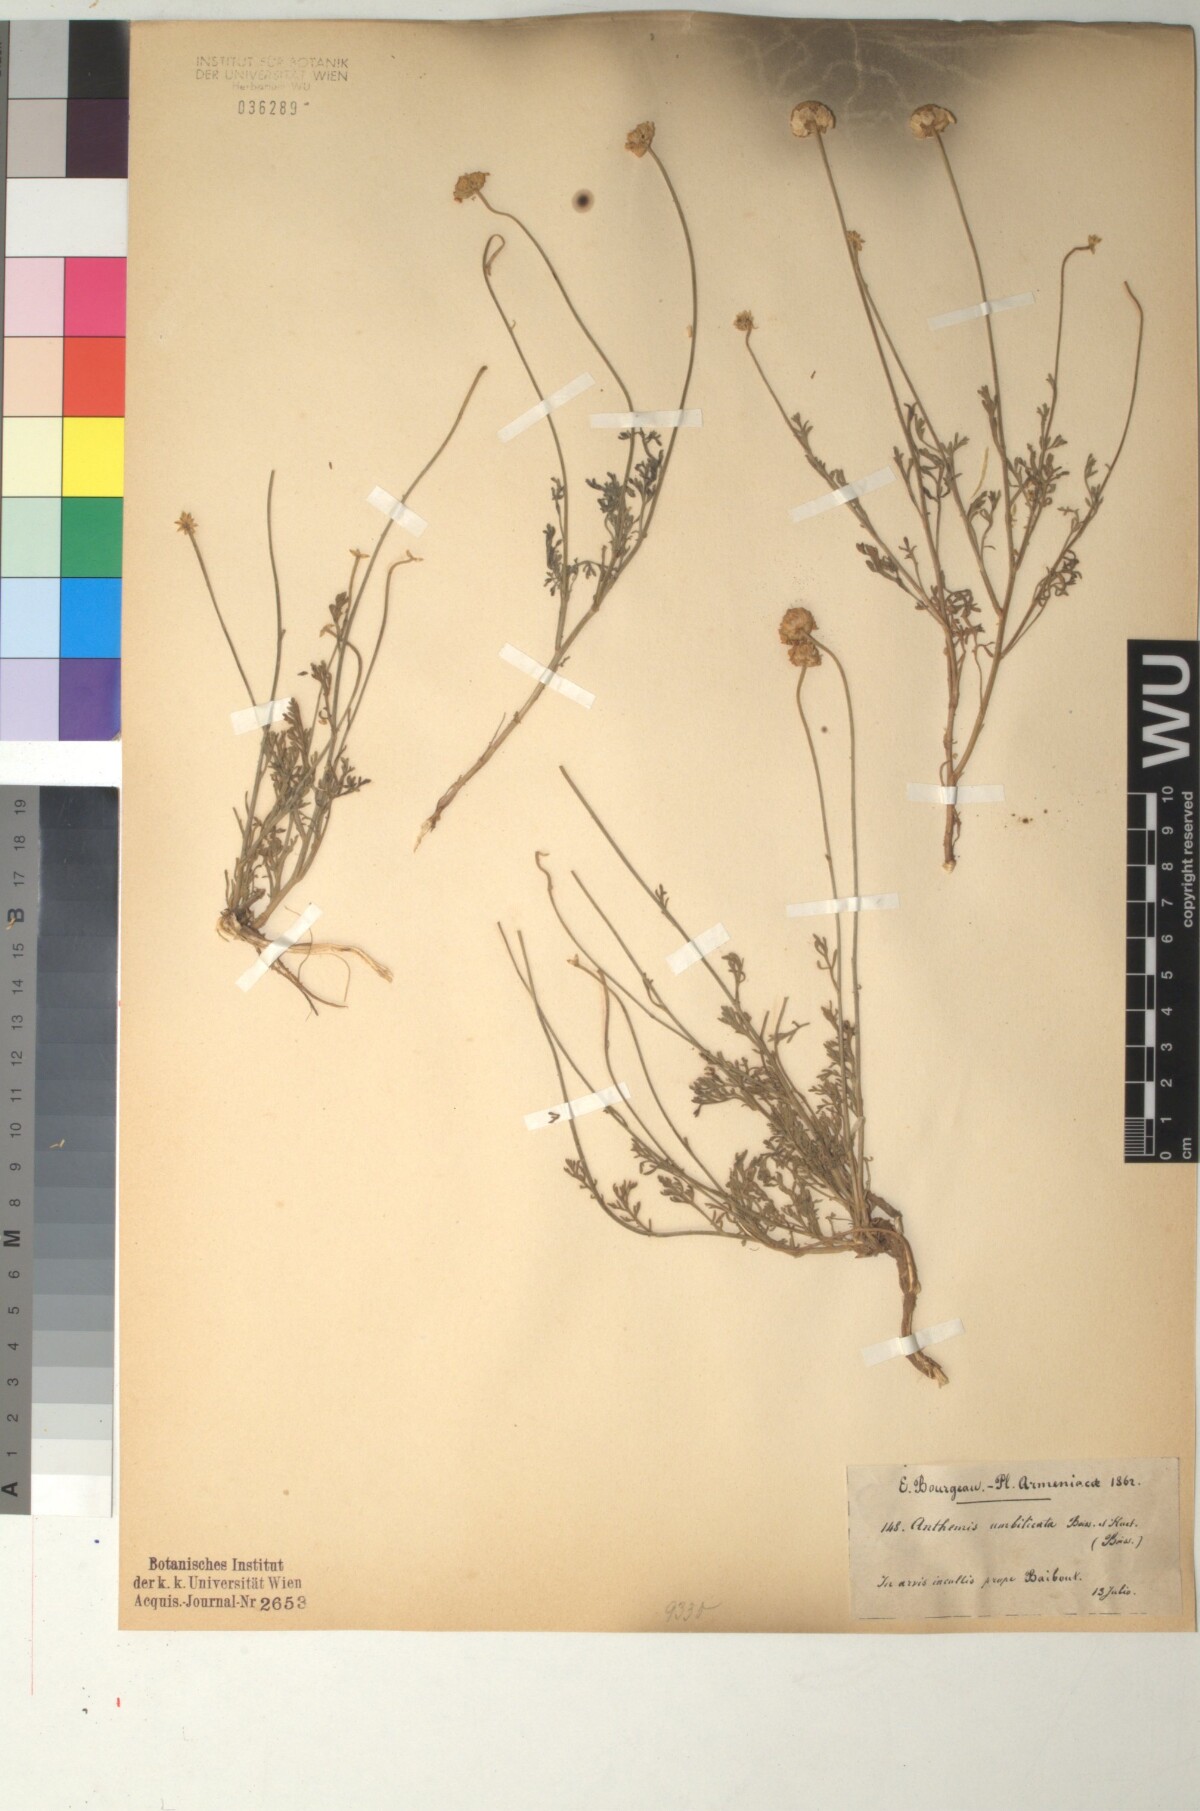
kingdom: Plantae
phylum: Tracheophyta
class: Magnoliopsida
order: Asterales
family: Asteraceae
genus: Anthemis
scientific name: Anthemis cretica
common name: Mountain dog-daisy
